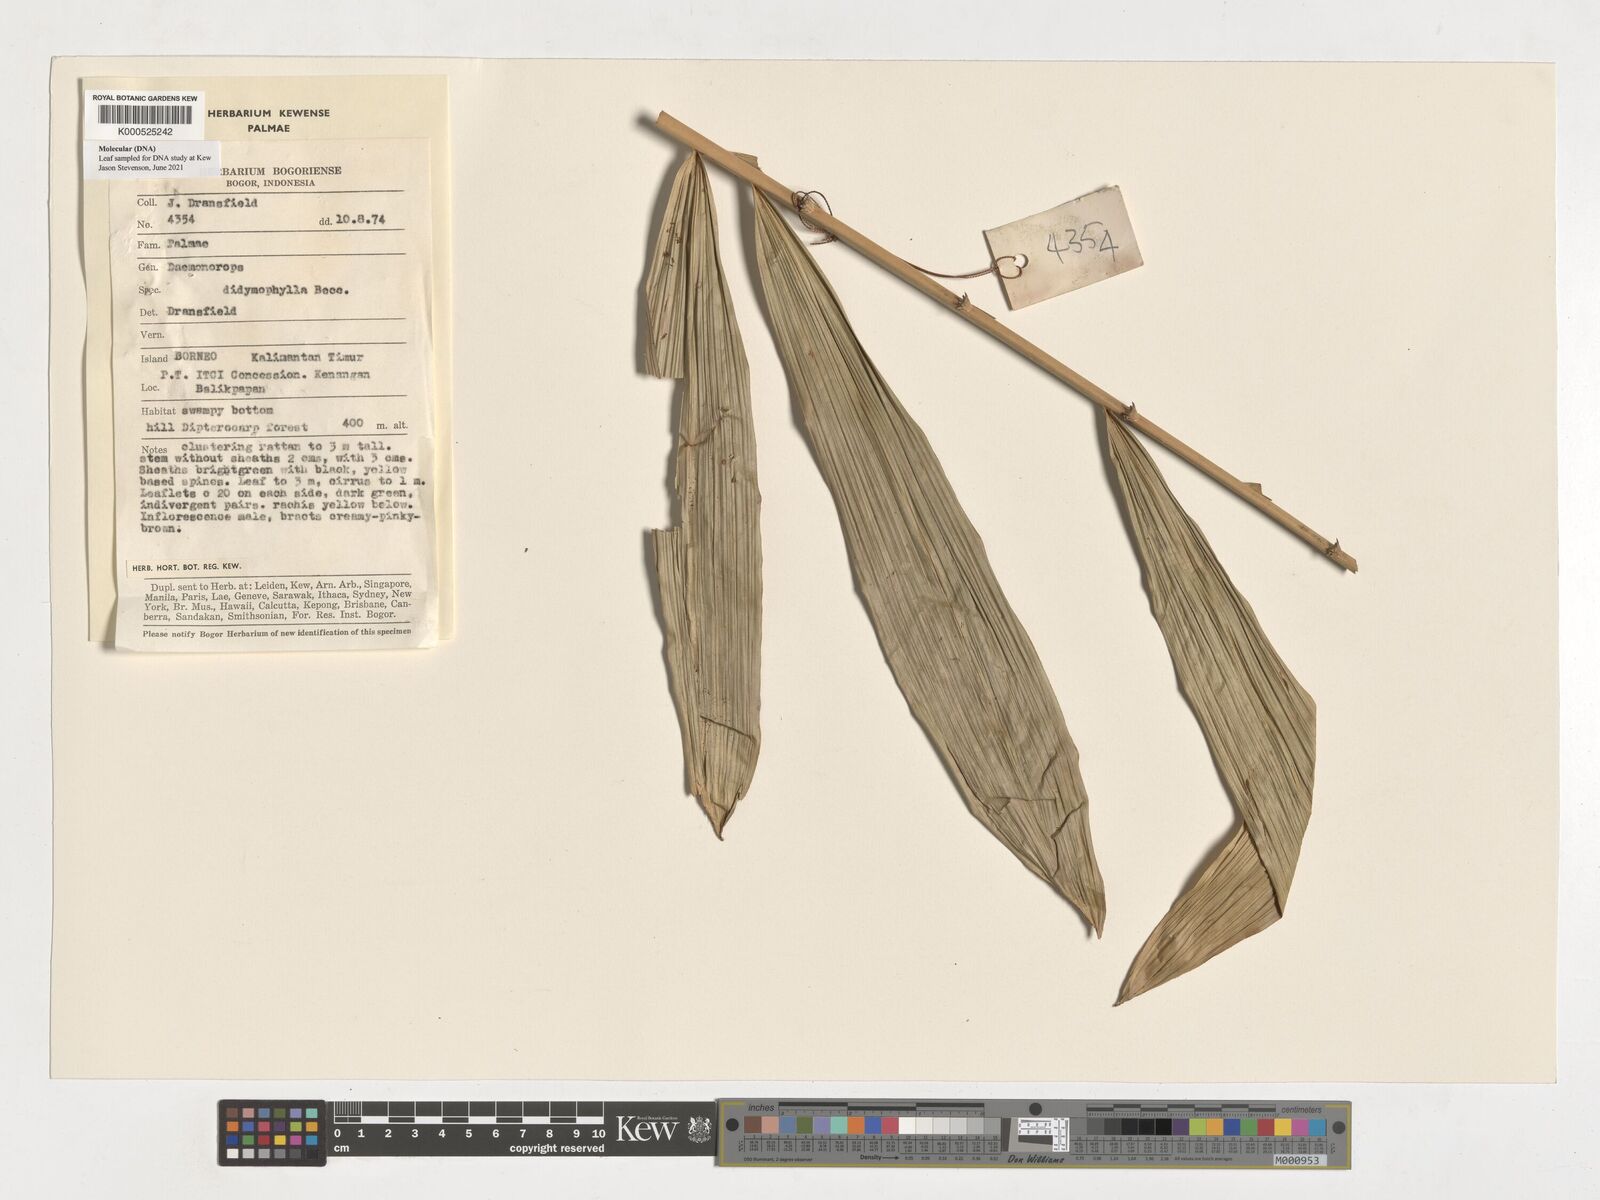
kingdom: Plantae
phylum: Tracheophyta
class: Liliopsida
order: Arecales
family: Arecaceae
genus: Calamus
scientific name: Calamus gracilipes
